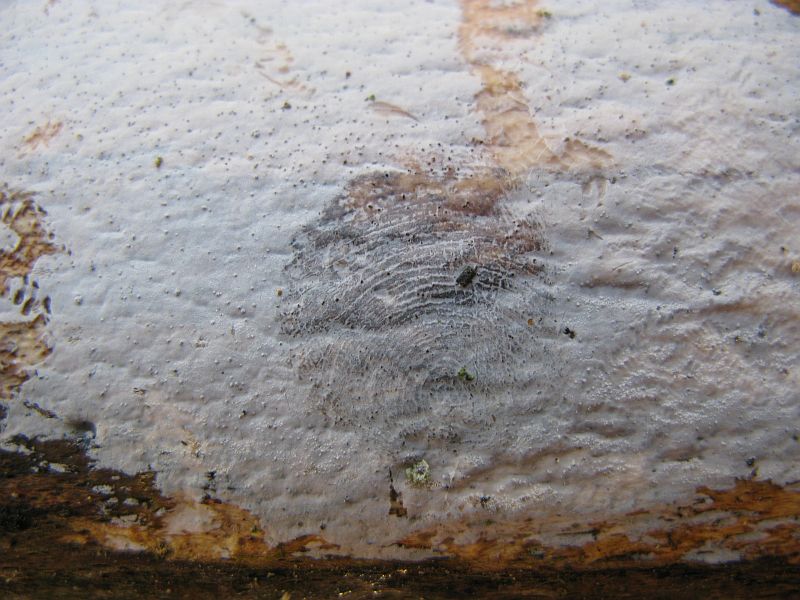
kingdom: Fungi
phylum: Basidiomycota
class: Tremellomycetes
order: Tremellales
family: Exidiaceae
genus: Exidiopsis
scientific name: Exidiopsis
